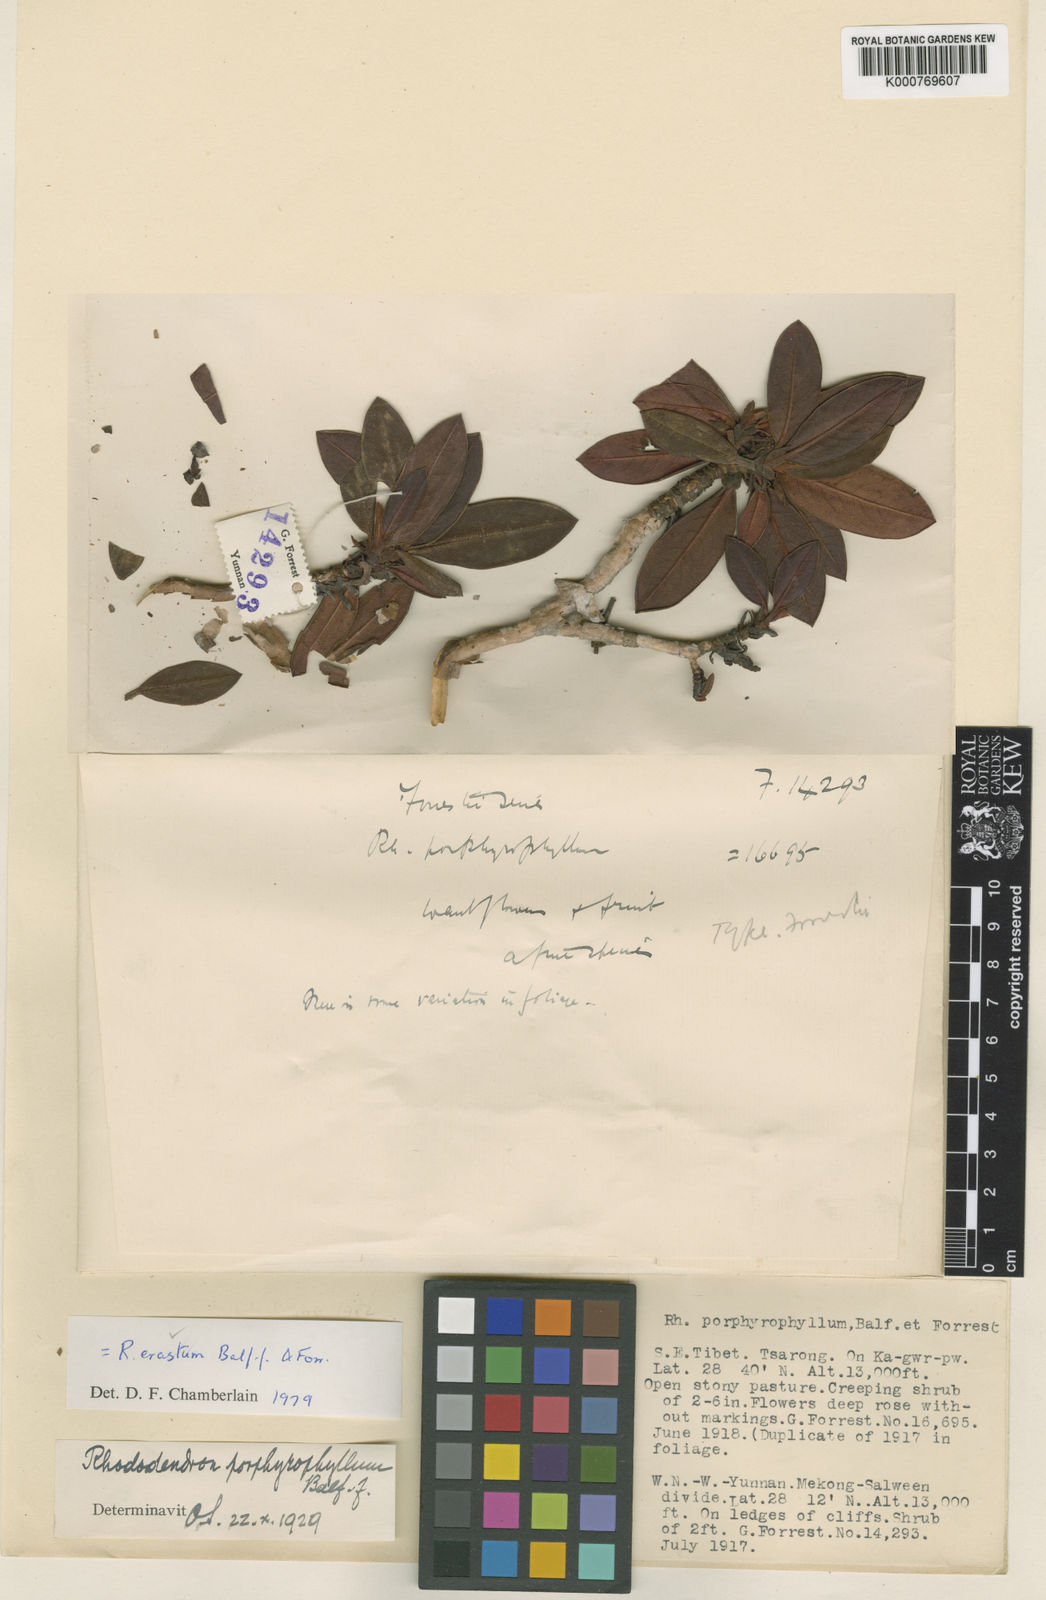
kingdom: Plantae
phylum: Tracheophyta
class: Magnoliopsida
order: Ericales
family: Ericaceae
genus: Rhododendron
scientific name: Rhododendron erastum
